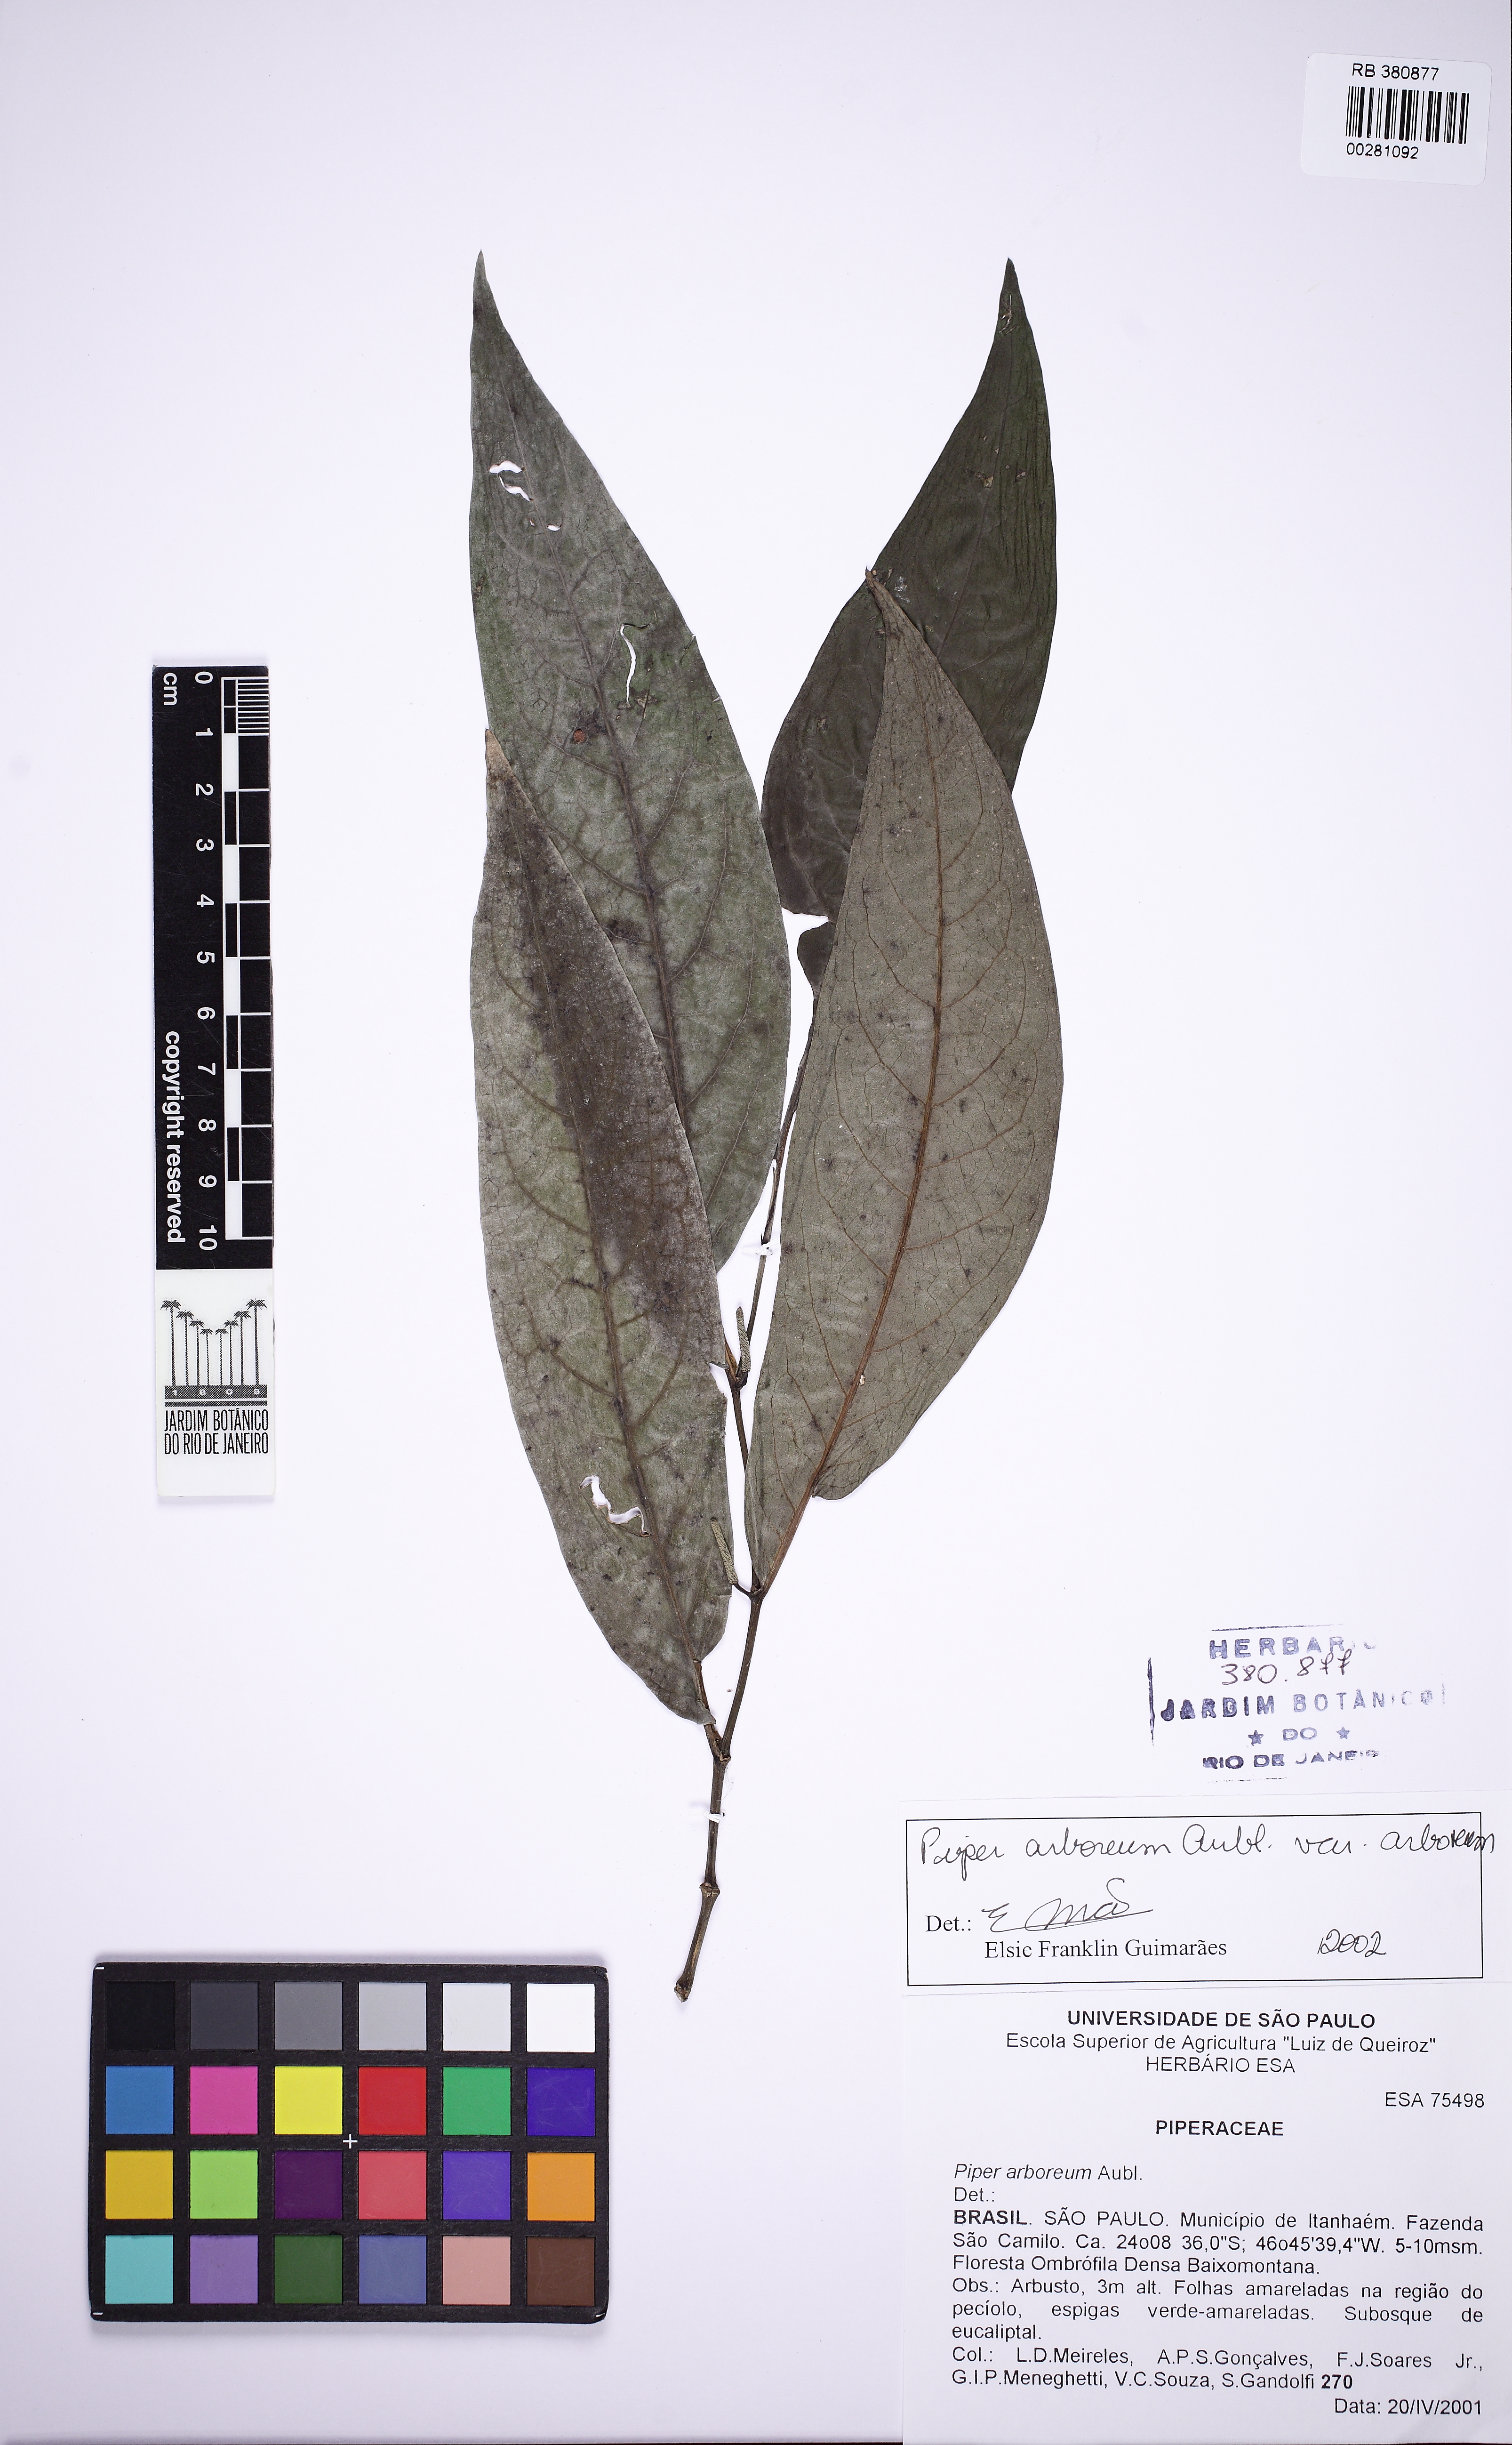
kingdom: Plantae
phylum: Tracheophyta
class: Magnoliopsida
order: Piperales
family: Piperaceae
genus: Piper
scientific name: Piper arboreum
